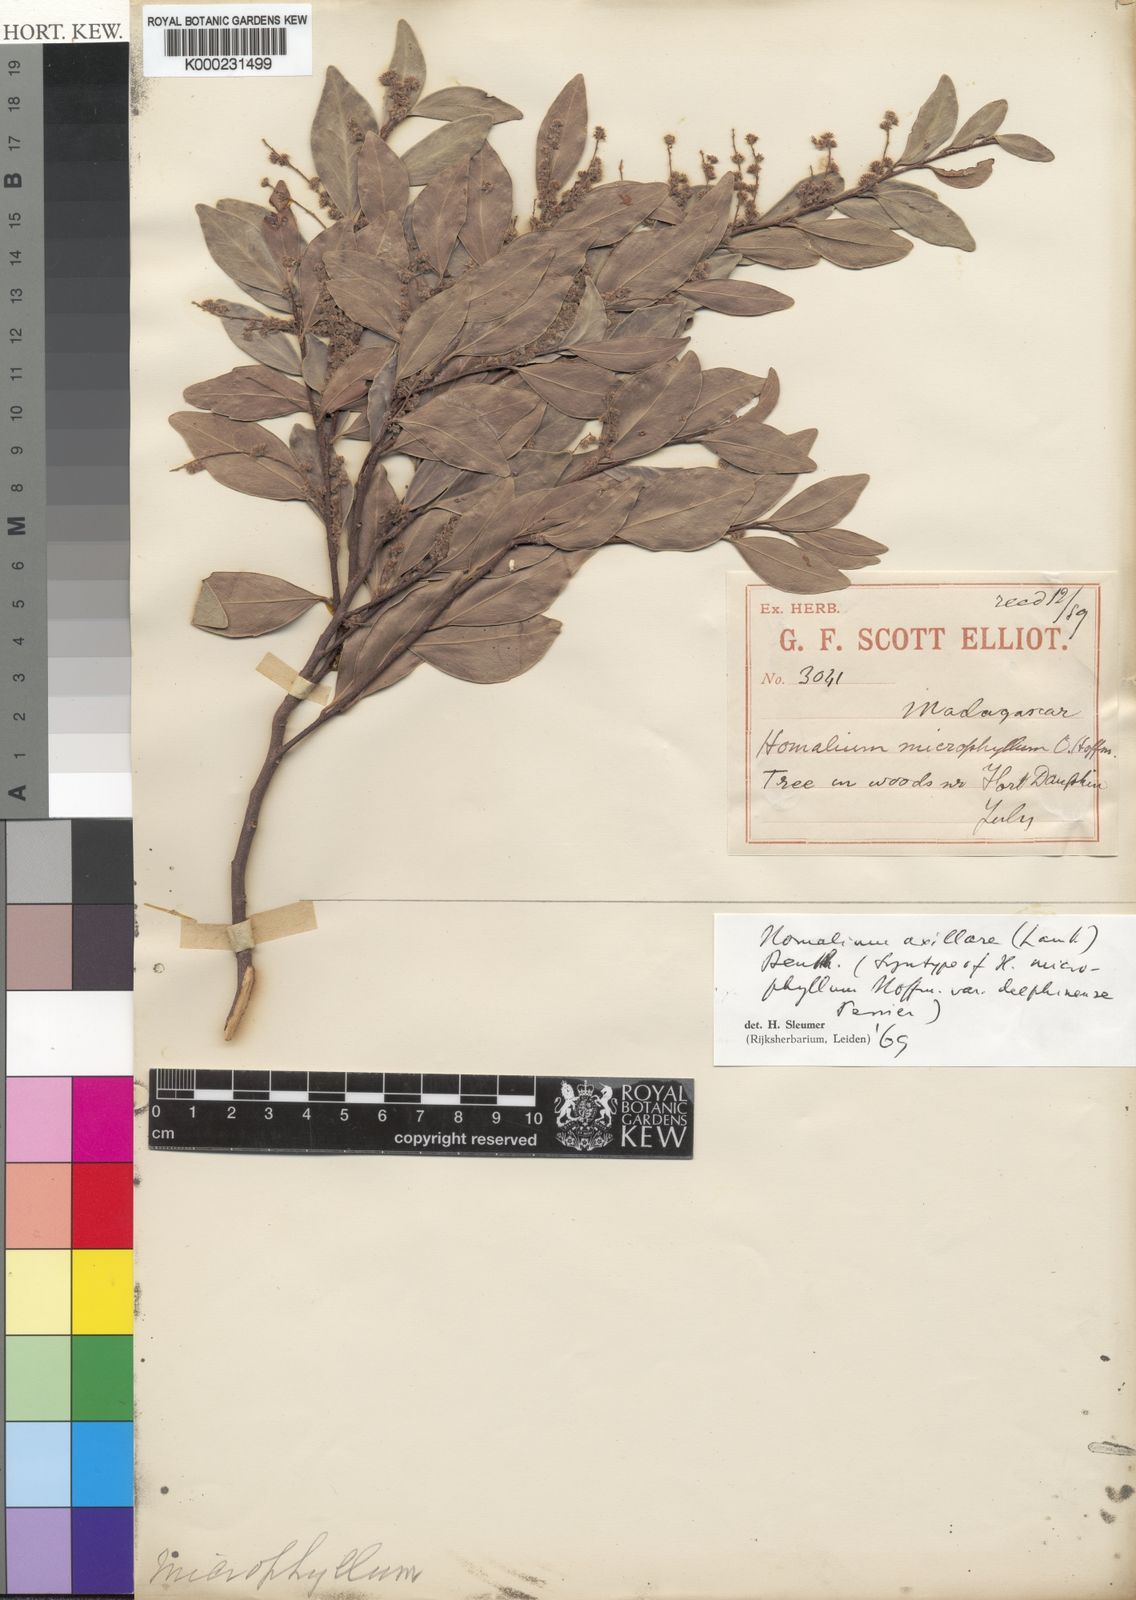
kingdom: Plantae
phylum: Tracheophyta
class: Magnoliopsida
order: Malpighiales
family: Salicaceae
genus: Homalium
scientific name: Homalium axillare
